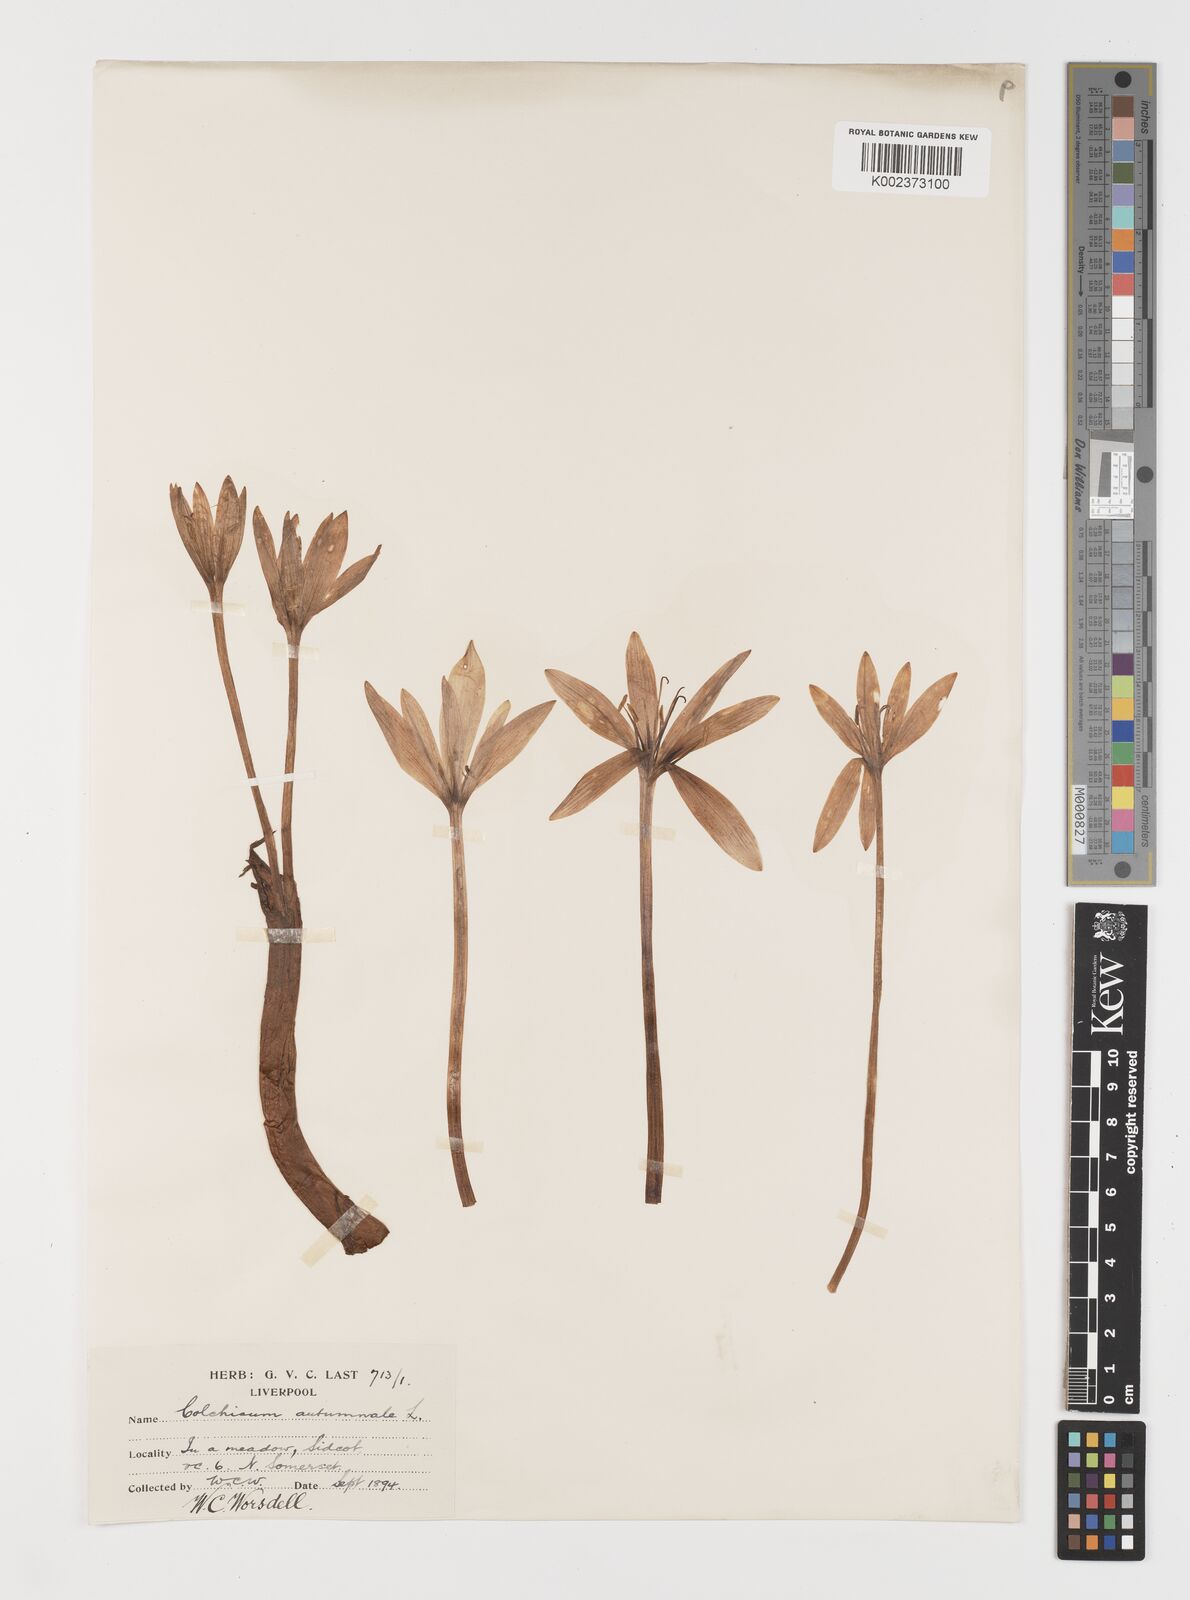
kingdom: Plantae
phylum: Tracheophyta
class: Liliopsida
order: Liliales
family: Colchicaceae
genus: Colchicum
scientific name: Colchicum autumnale
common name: Autumn crocus
